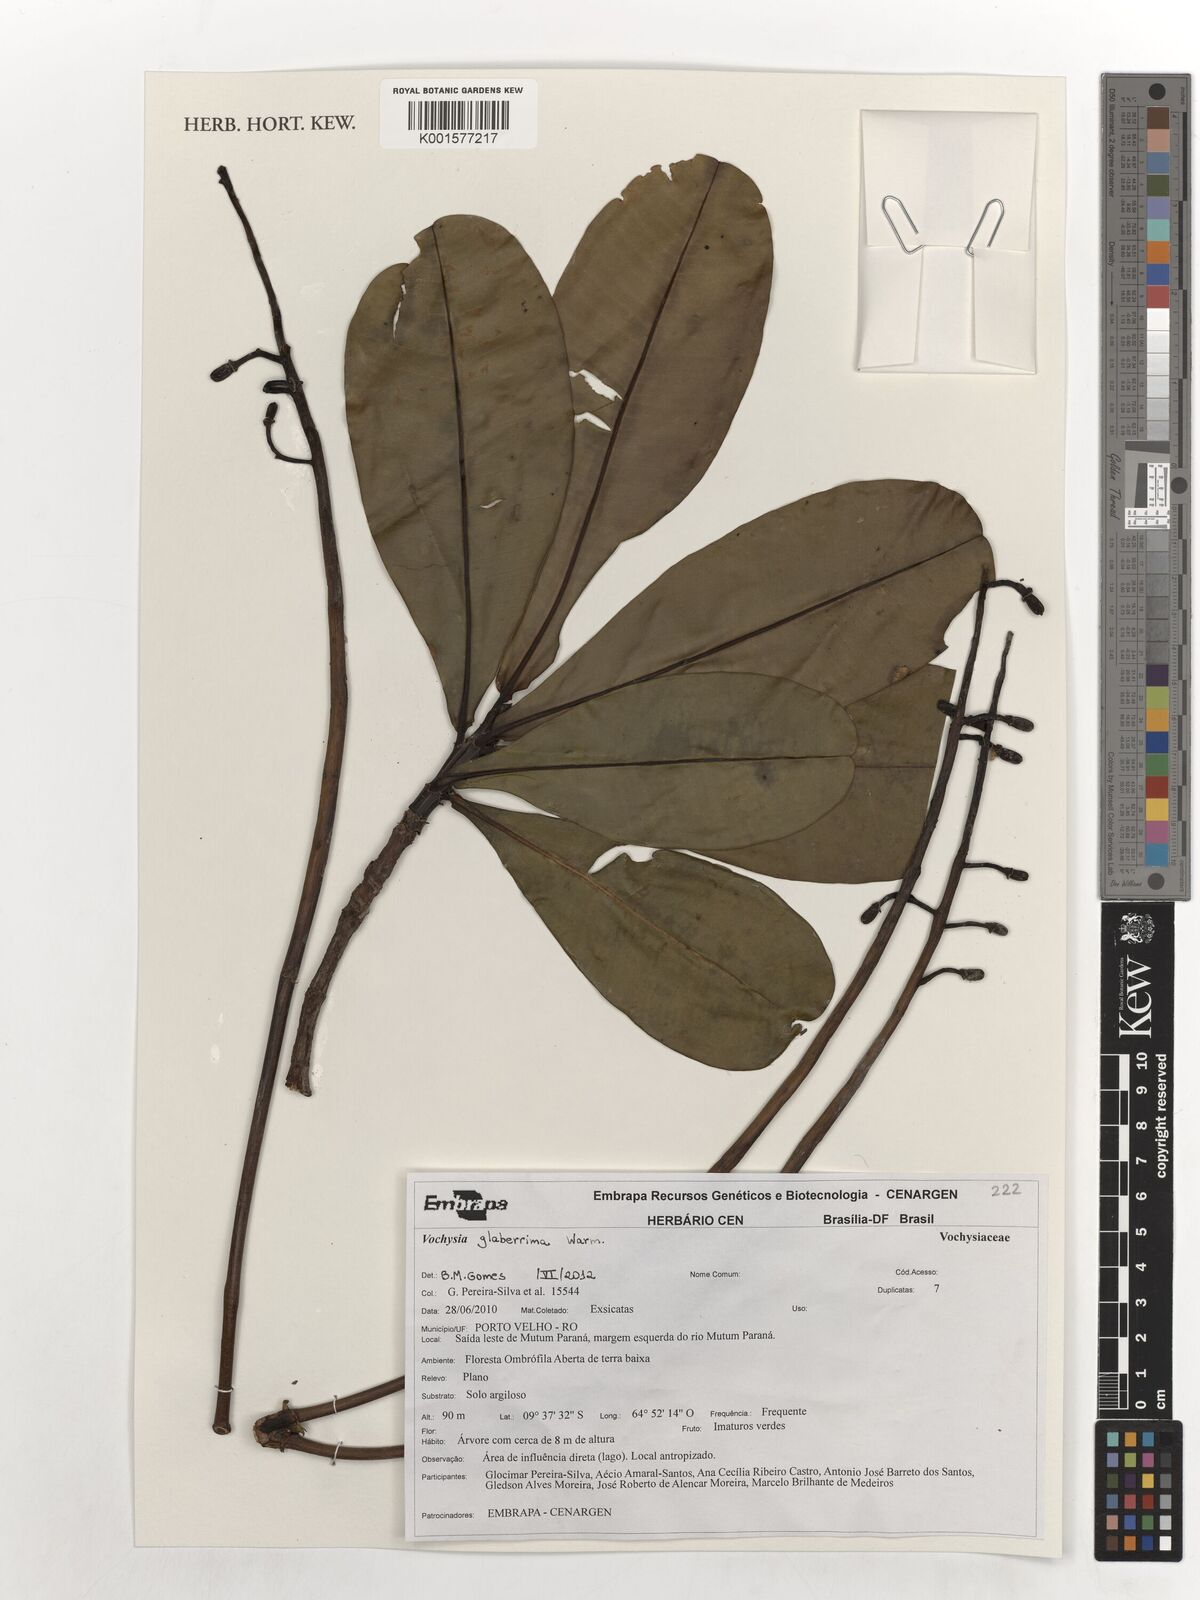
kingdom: Plantae
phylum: Tracheophyta
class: Magnoliopsida
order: Myrtales
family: Vochysiaceae
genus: Vochysia
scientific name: Vochysia glaberrima
